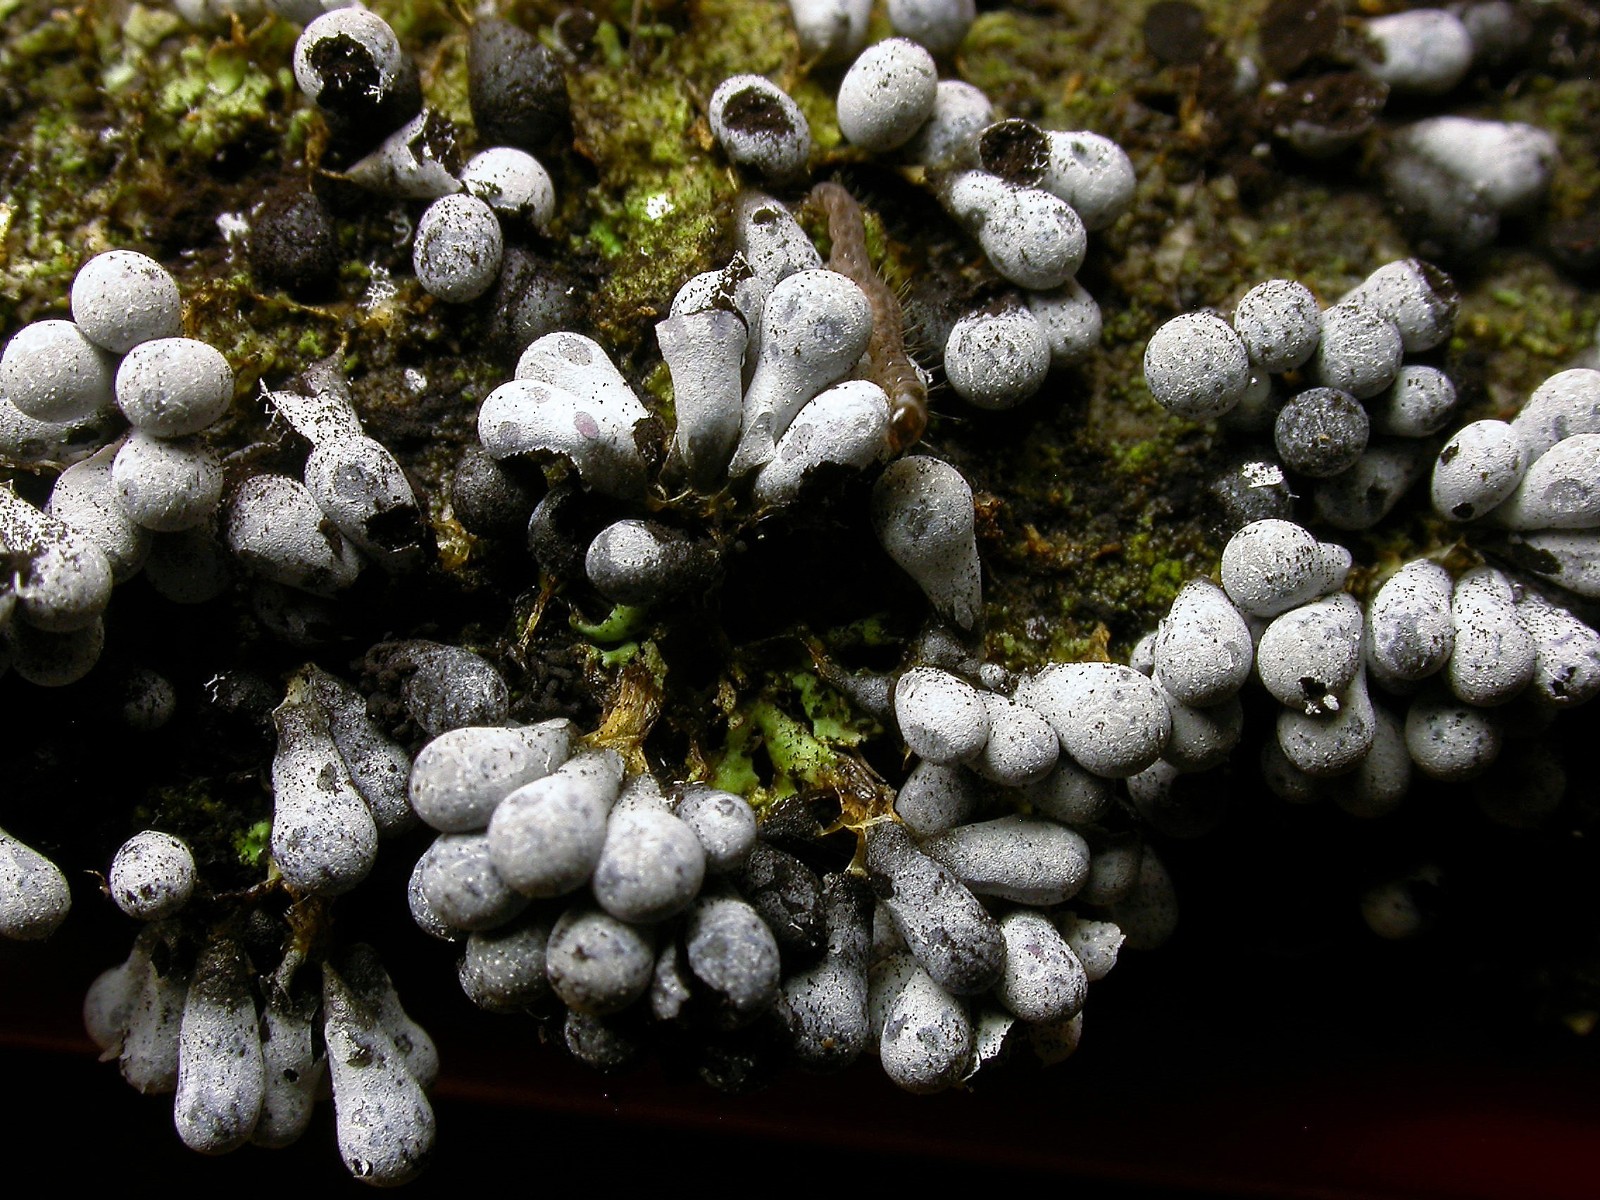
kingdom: Protozoa
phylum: Mycetozoa
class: Myxomycetes
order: Physarales
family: Physaraceae
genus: Badhamia
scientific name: Badhamia utricularis
